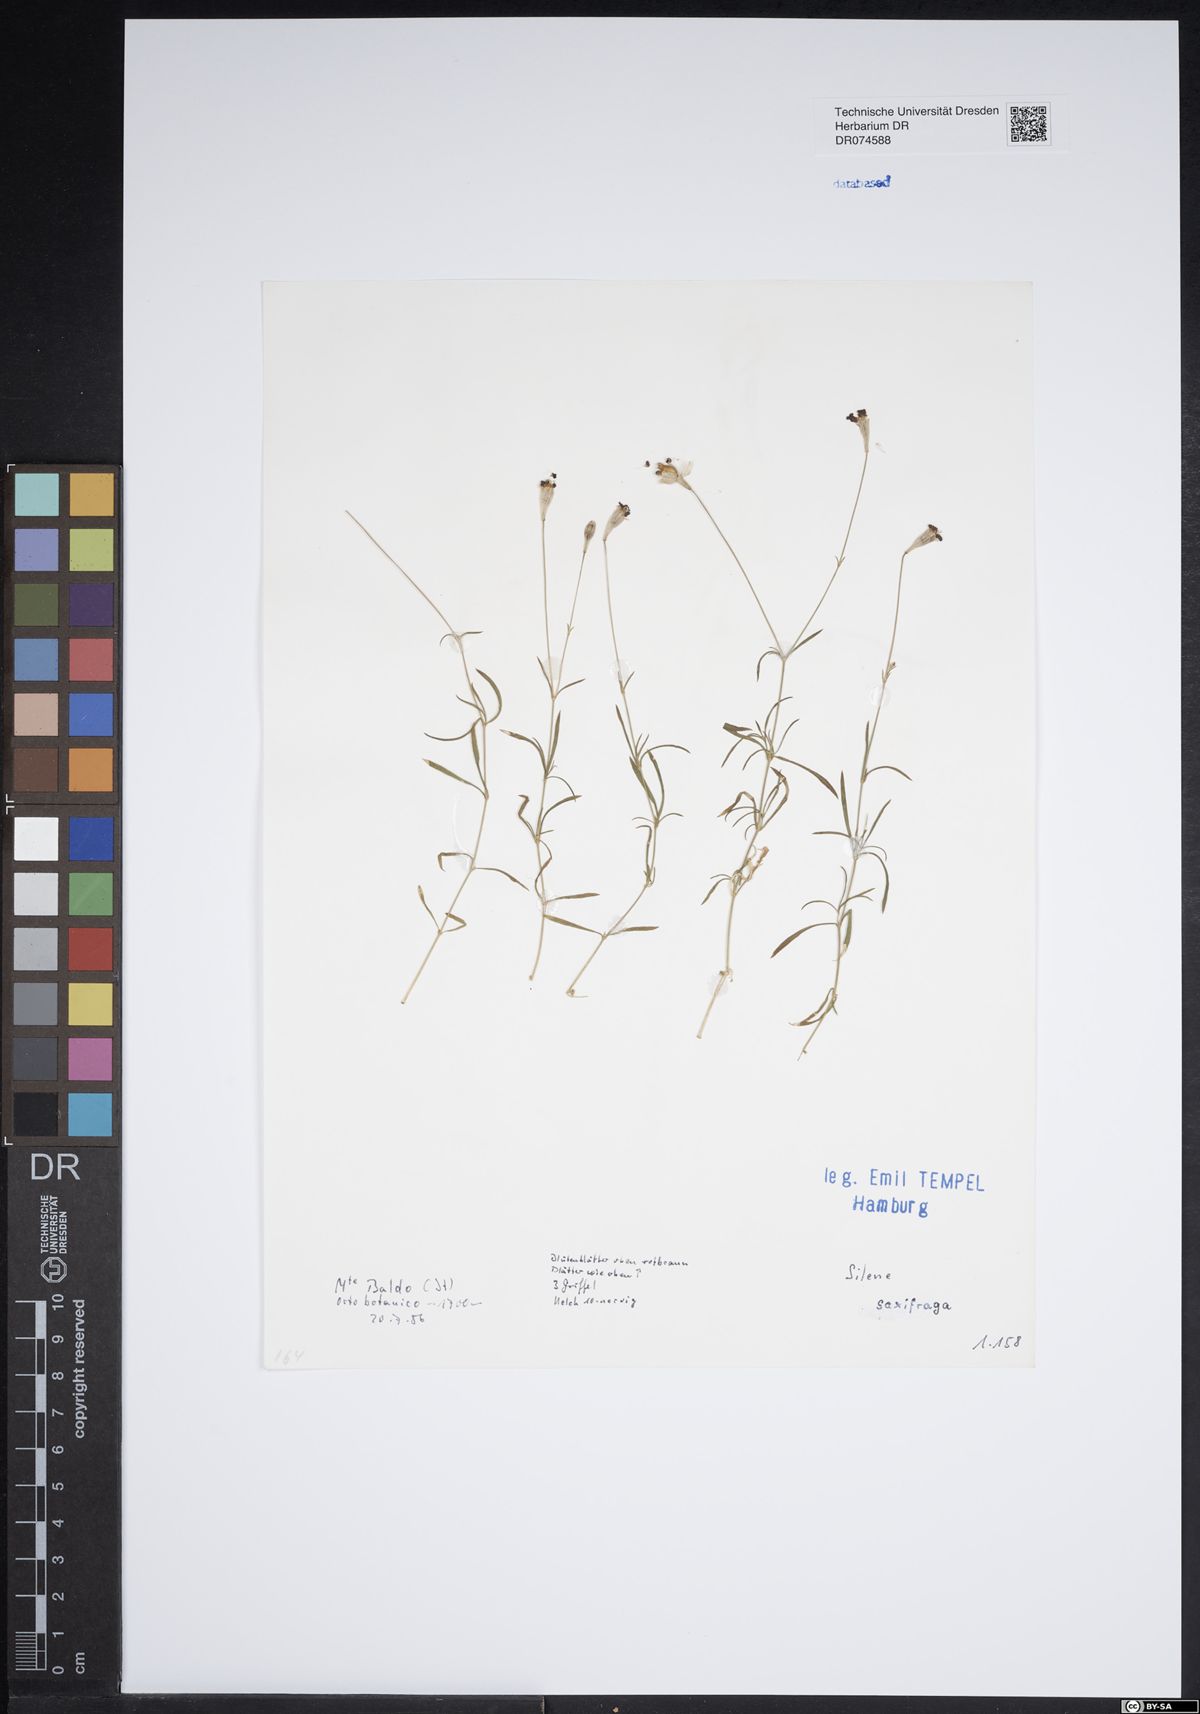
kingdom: Plantae
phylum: Tracheophyta
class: Magnoliopsida
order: Caryophyllales
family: Caryophyllaceae
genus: Silene
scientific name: Silene saxifraga
